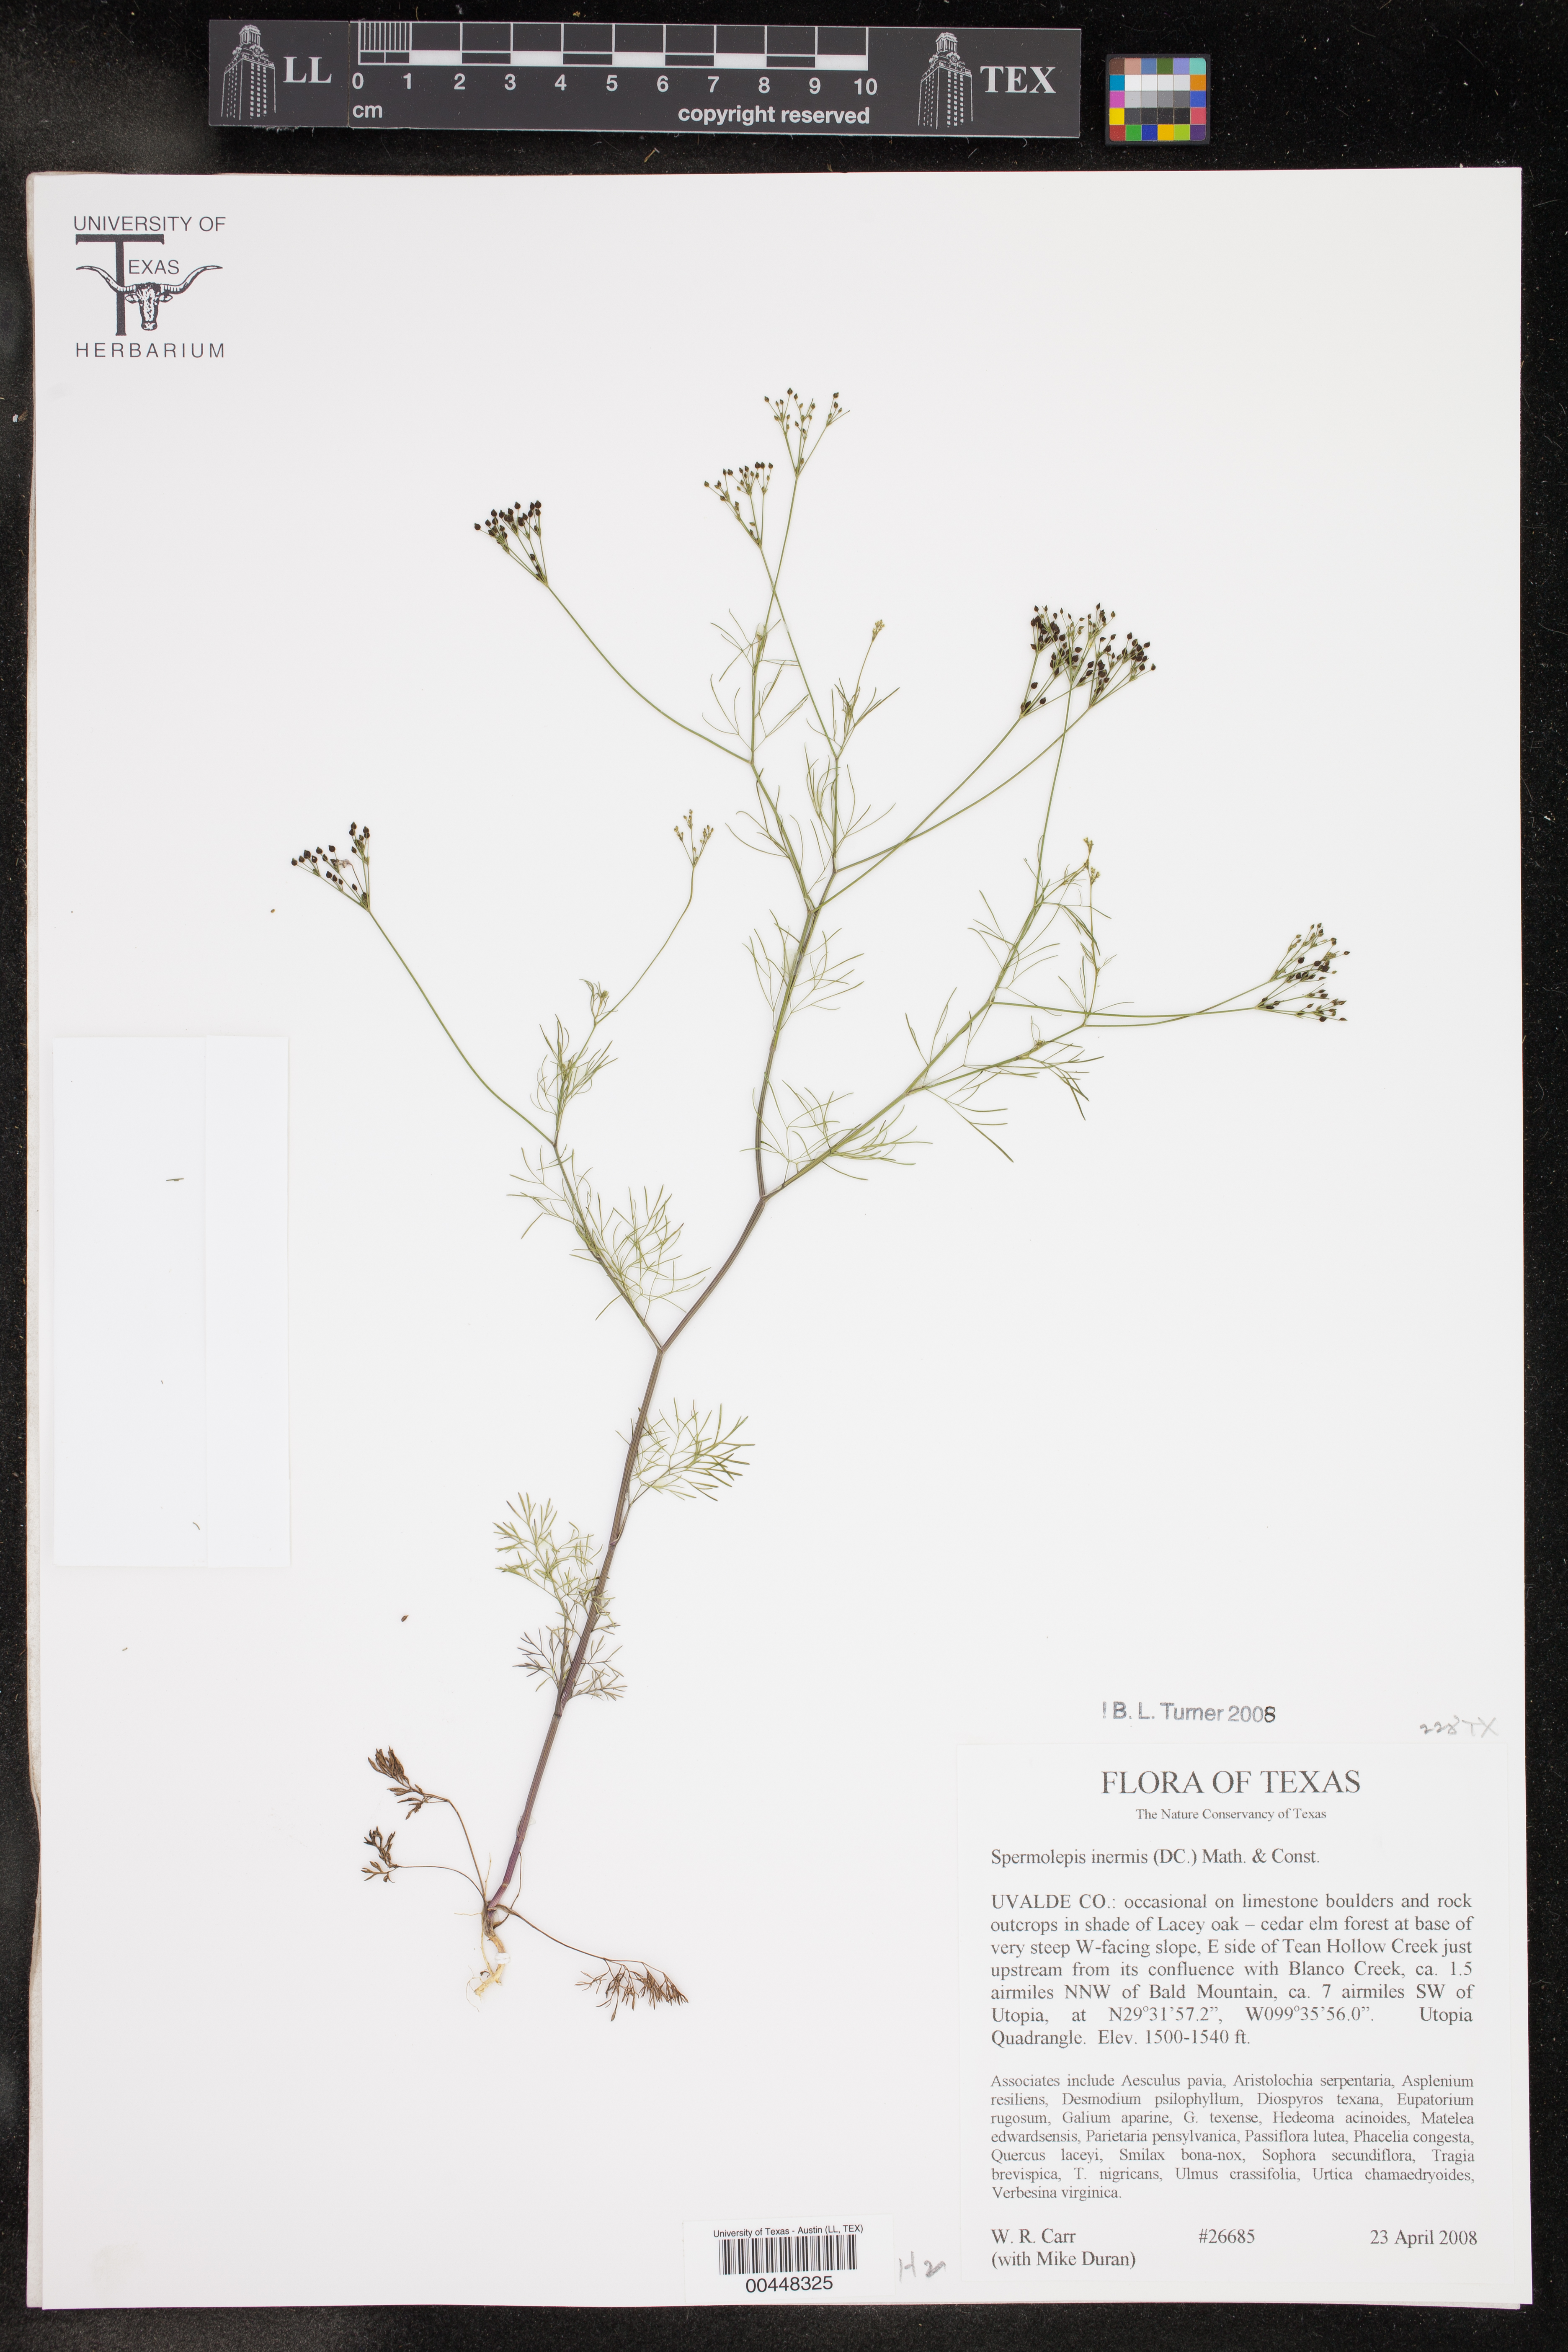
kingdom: Plantae
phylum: Tracheophyta
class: Magnoliopsida
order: Apiales
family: Apiaceae
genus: Spermolepis
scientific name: Spermolepis inermis
